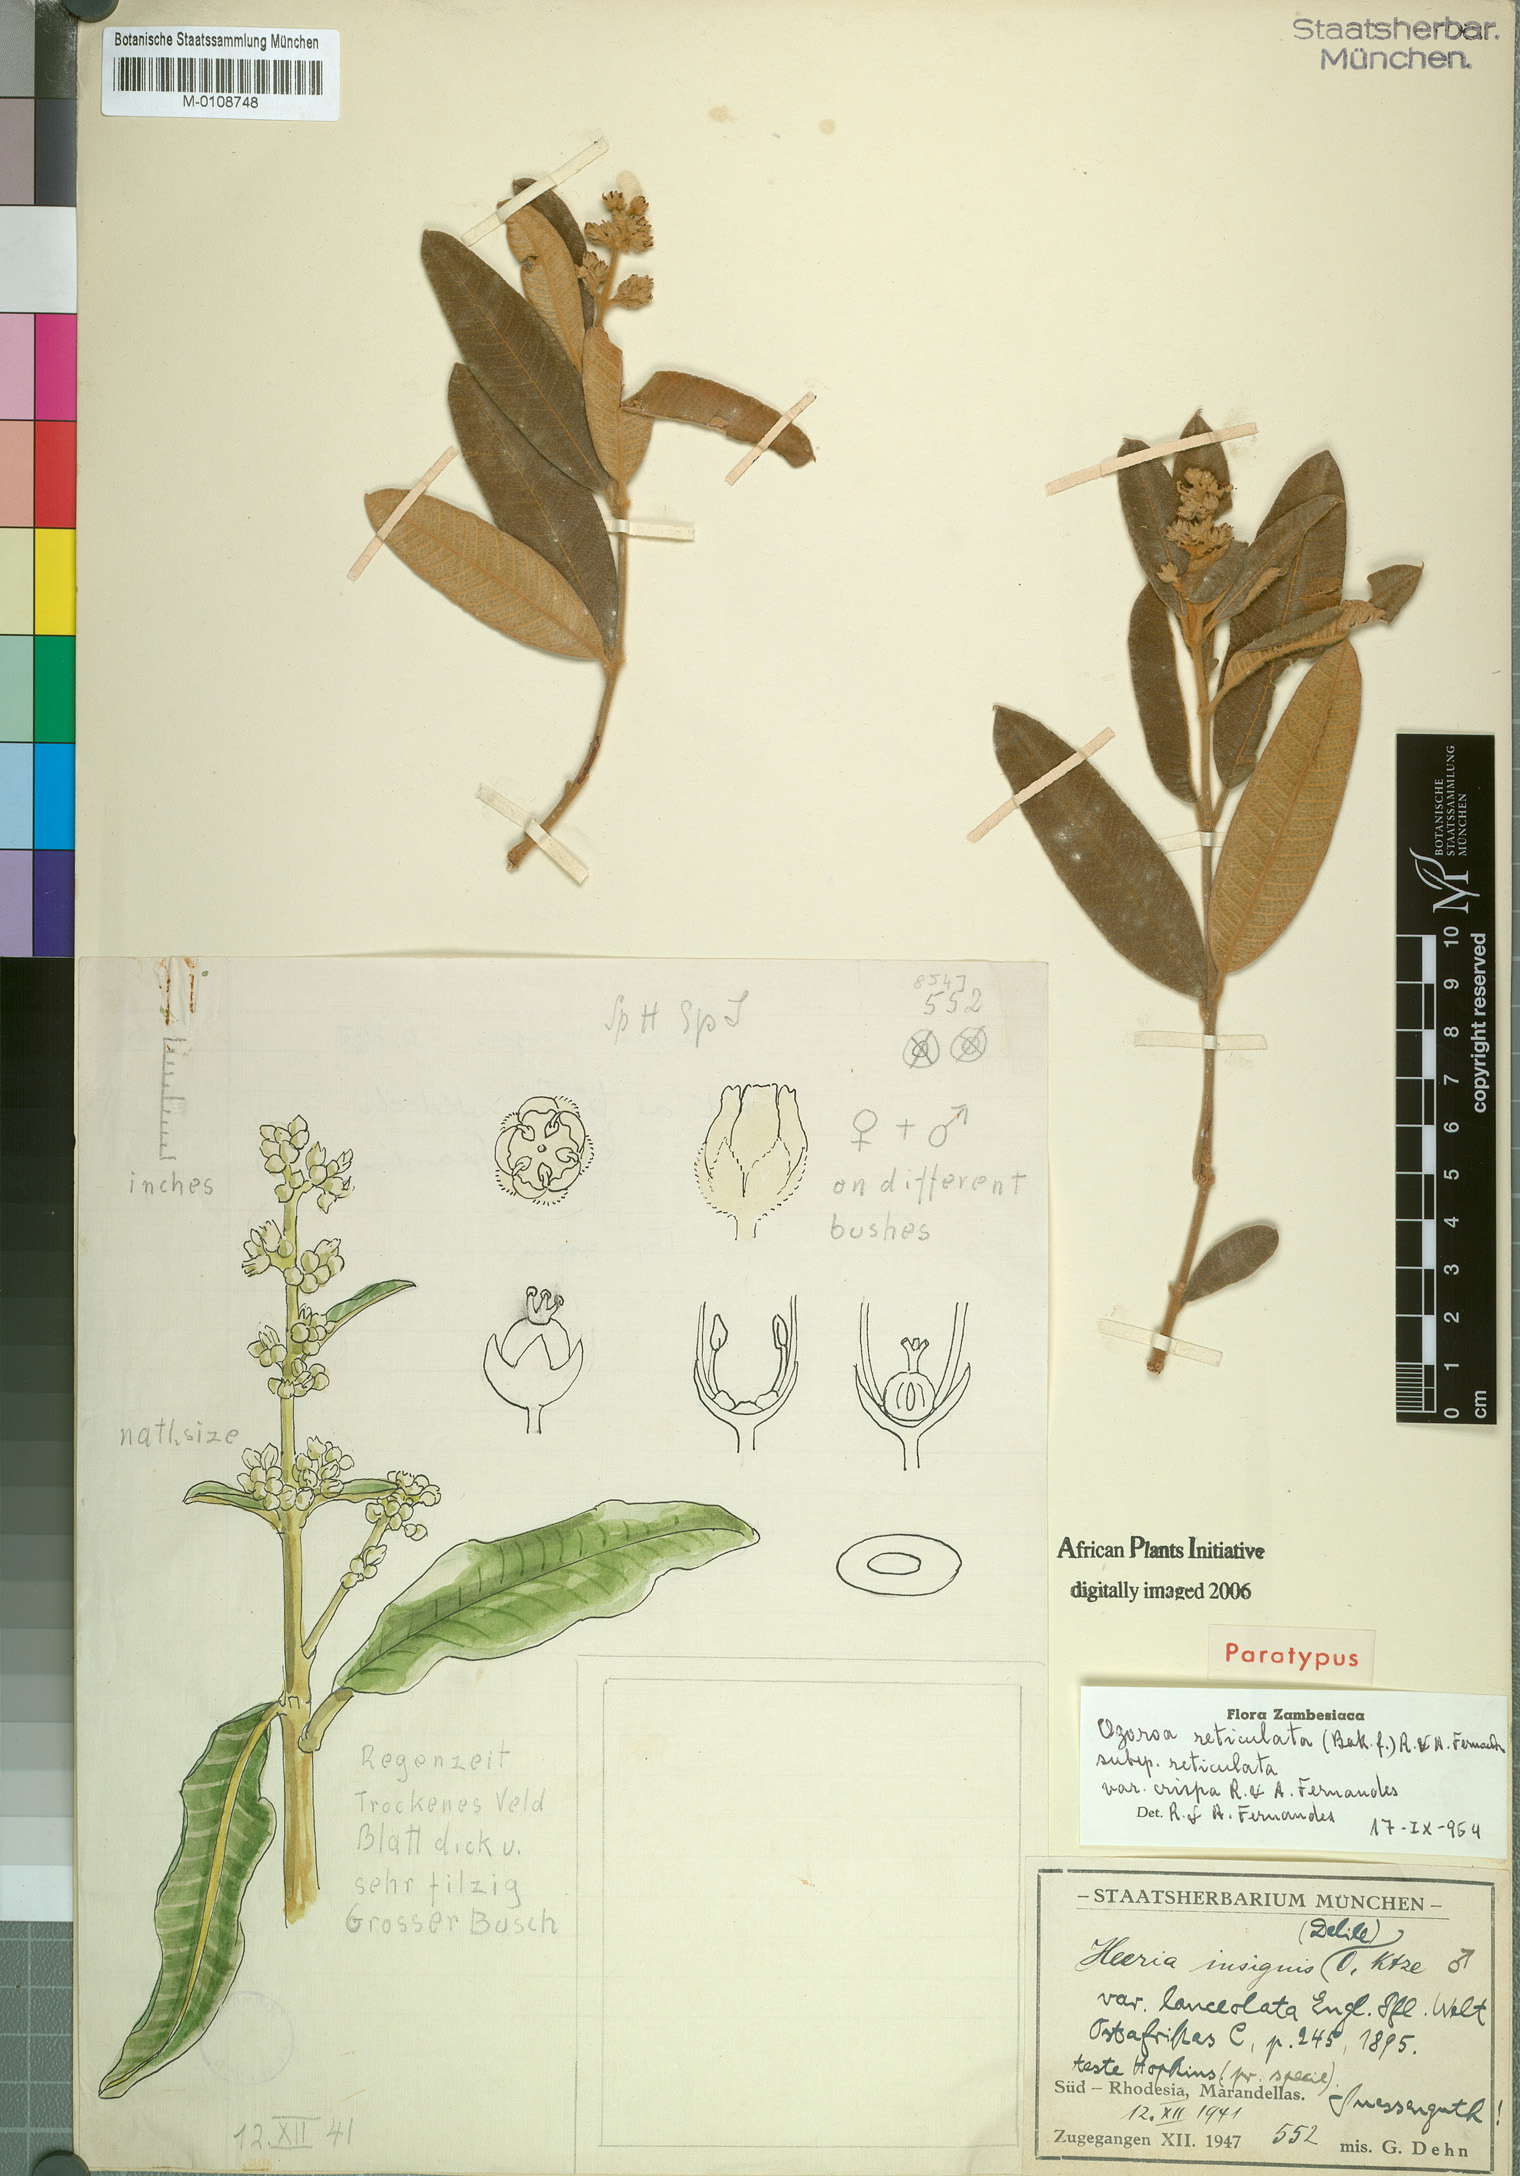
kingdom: Plantae
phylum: Tracheophyta
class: Magnoliopsida
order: Sapindales
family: Anacardiaceae
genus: Ozoroa
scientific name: Ozoroa insignis
